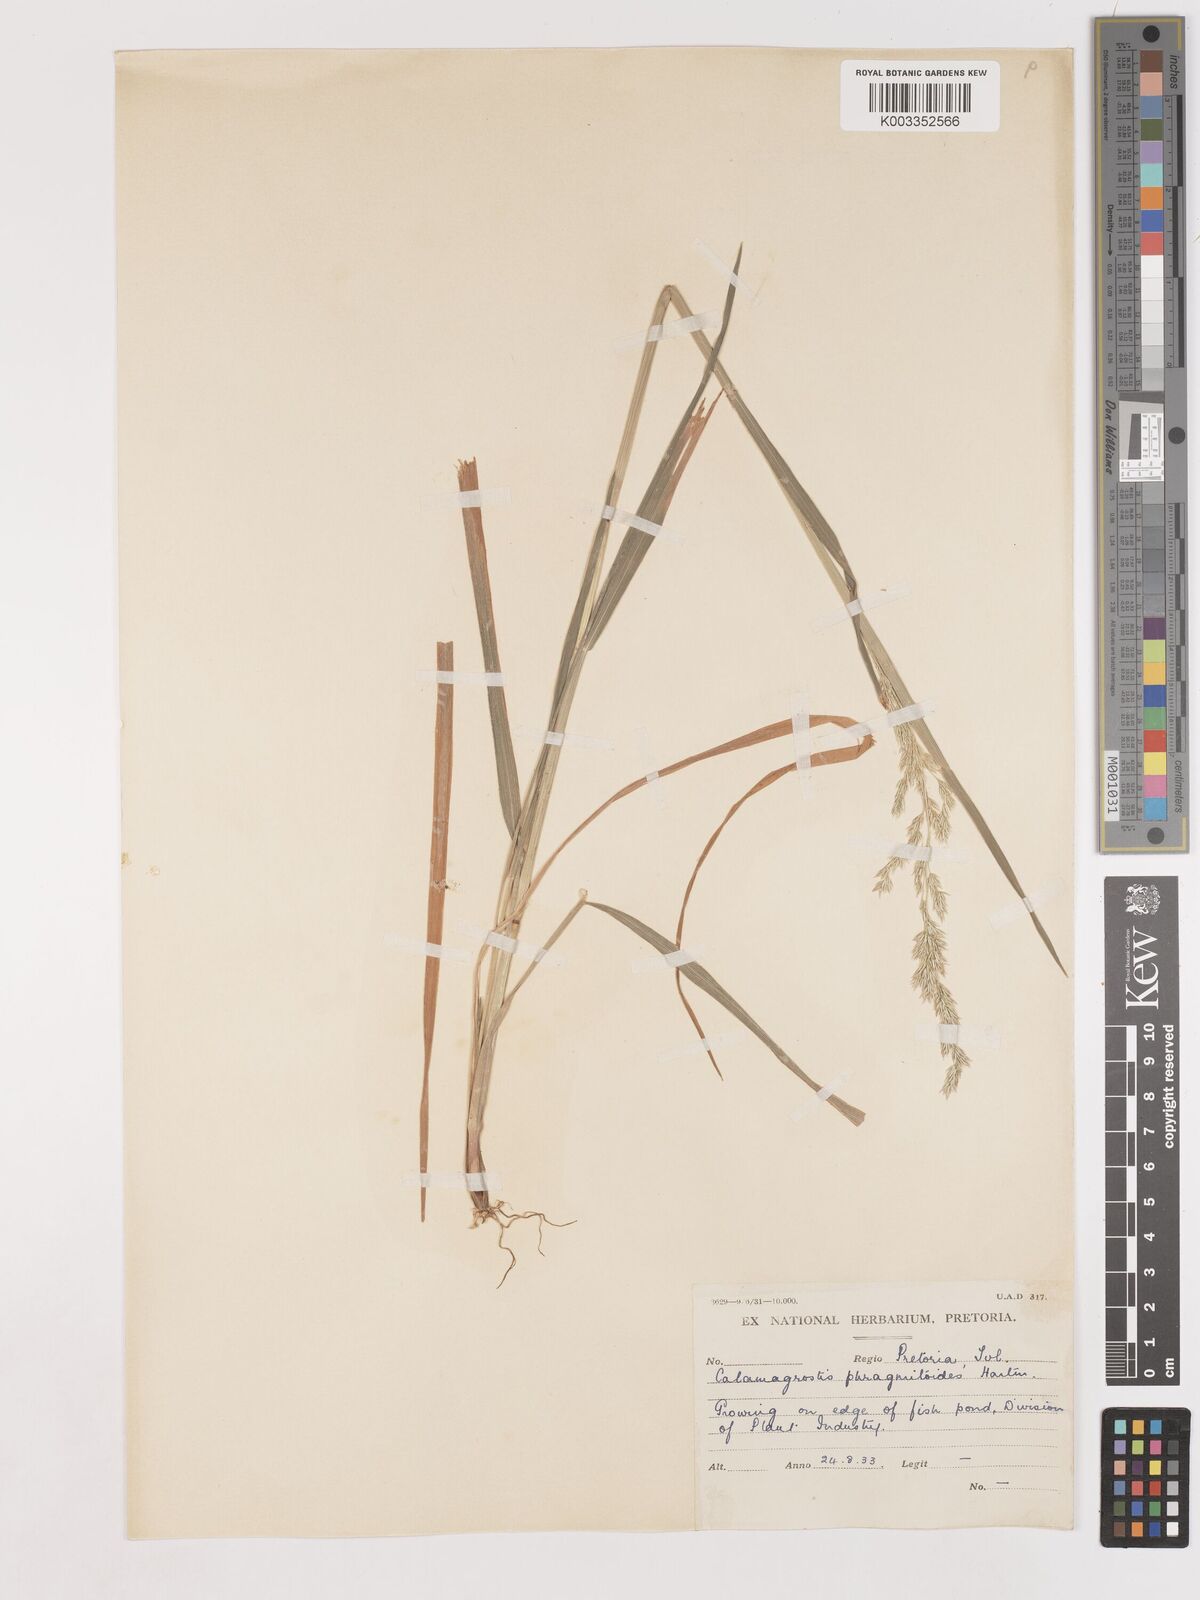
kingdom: Plantae
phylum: Tracheophyta
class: Liliopsida
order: Poales
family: Poaceae
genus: Calamagrostis
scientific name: Calamagrostis epigejos
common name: Wood small-reed
